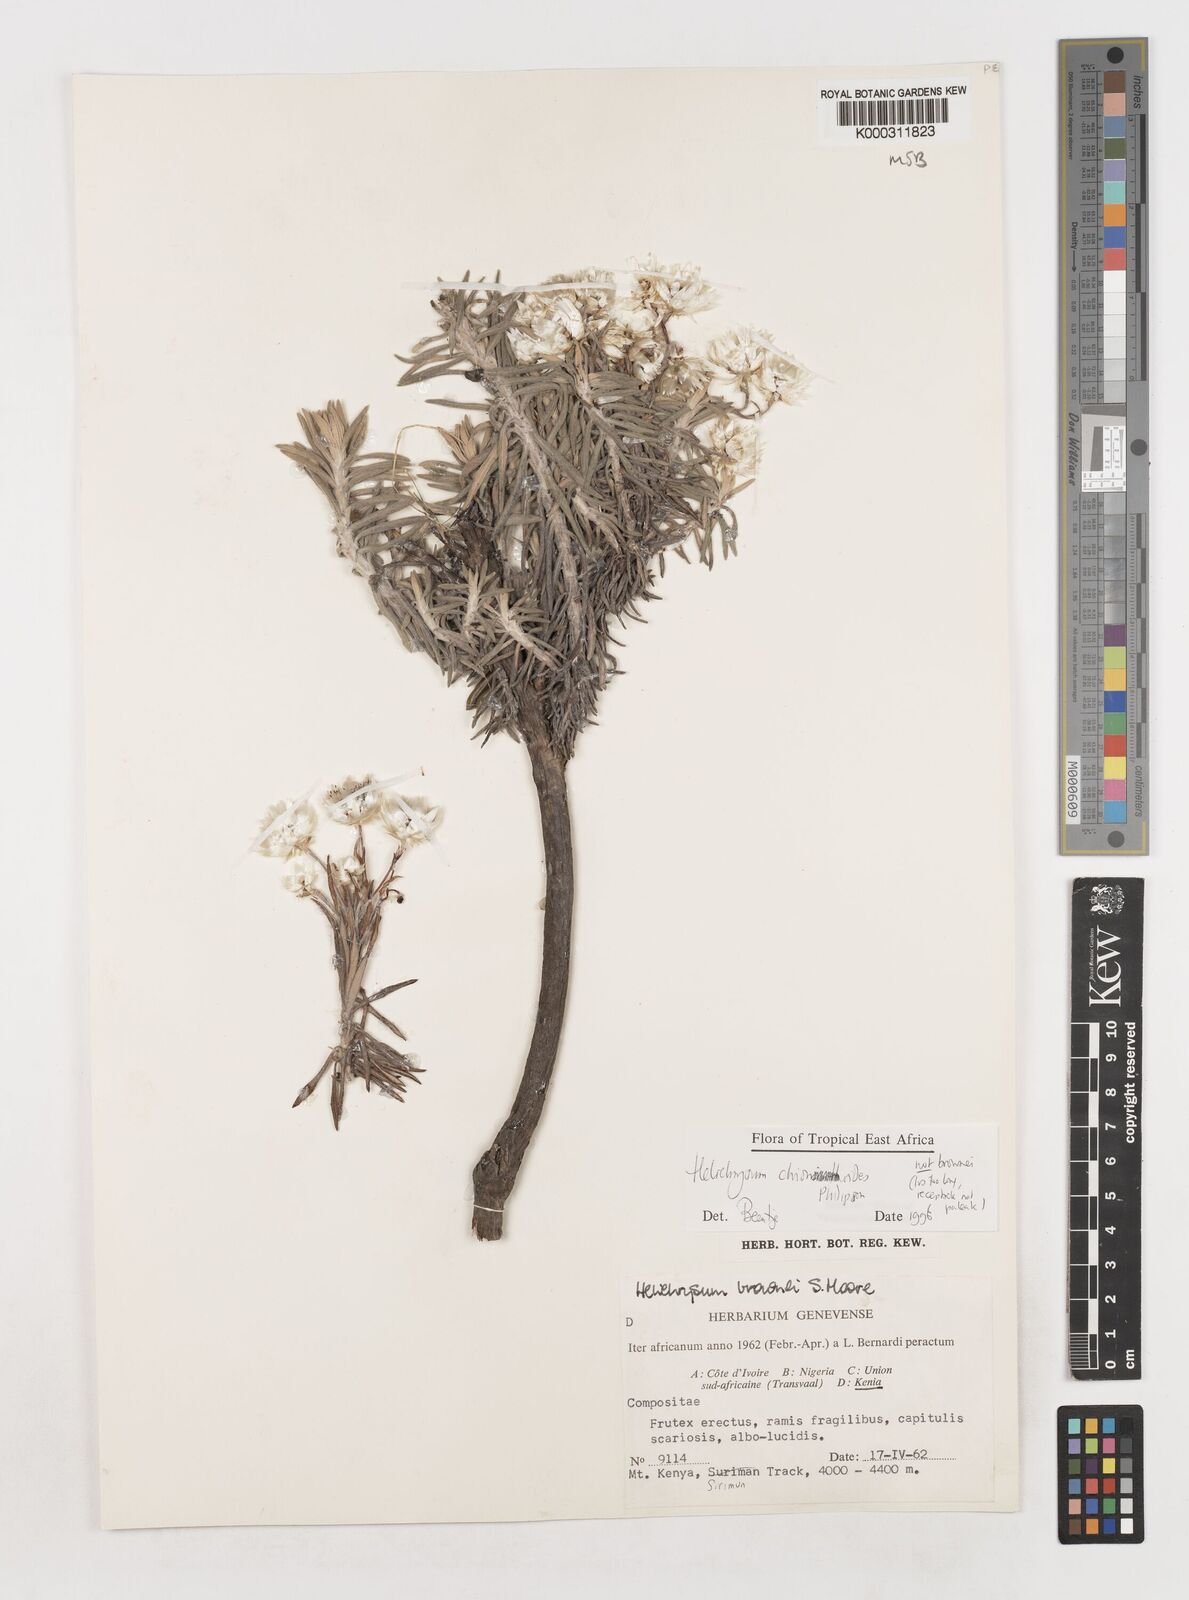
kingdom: Plantae
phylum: Tracheophyta
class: Magnoliopsida
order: Asterales
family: Asteraceae
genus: Helichrysum
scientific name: Helichrysum chionoides
